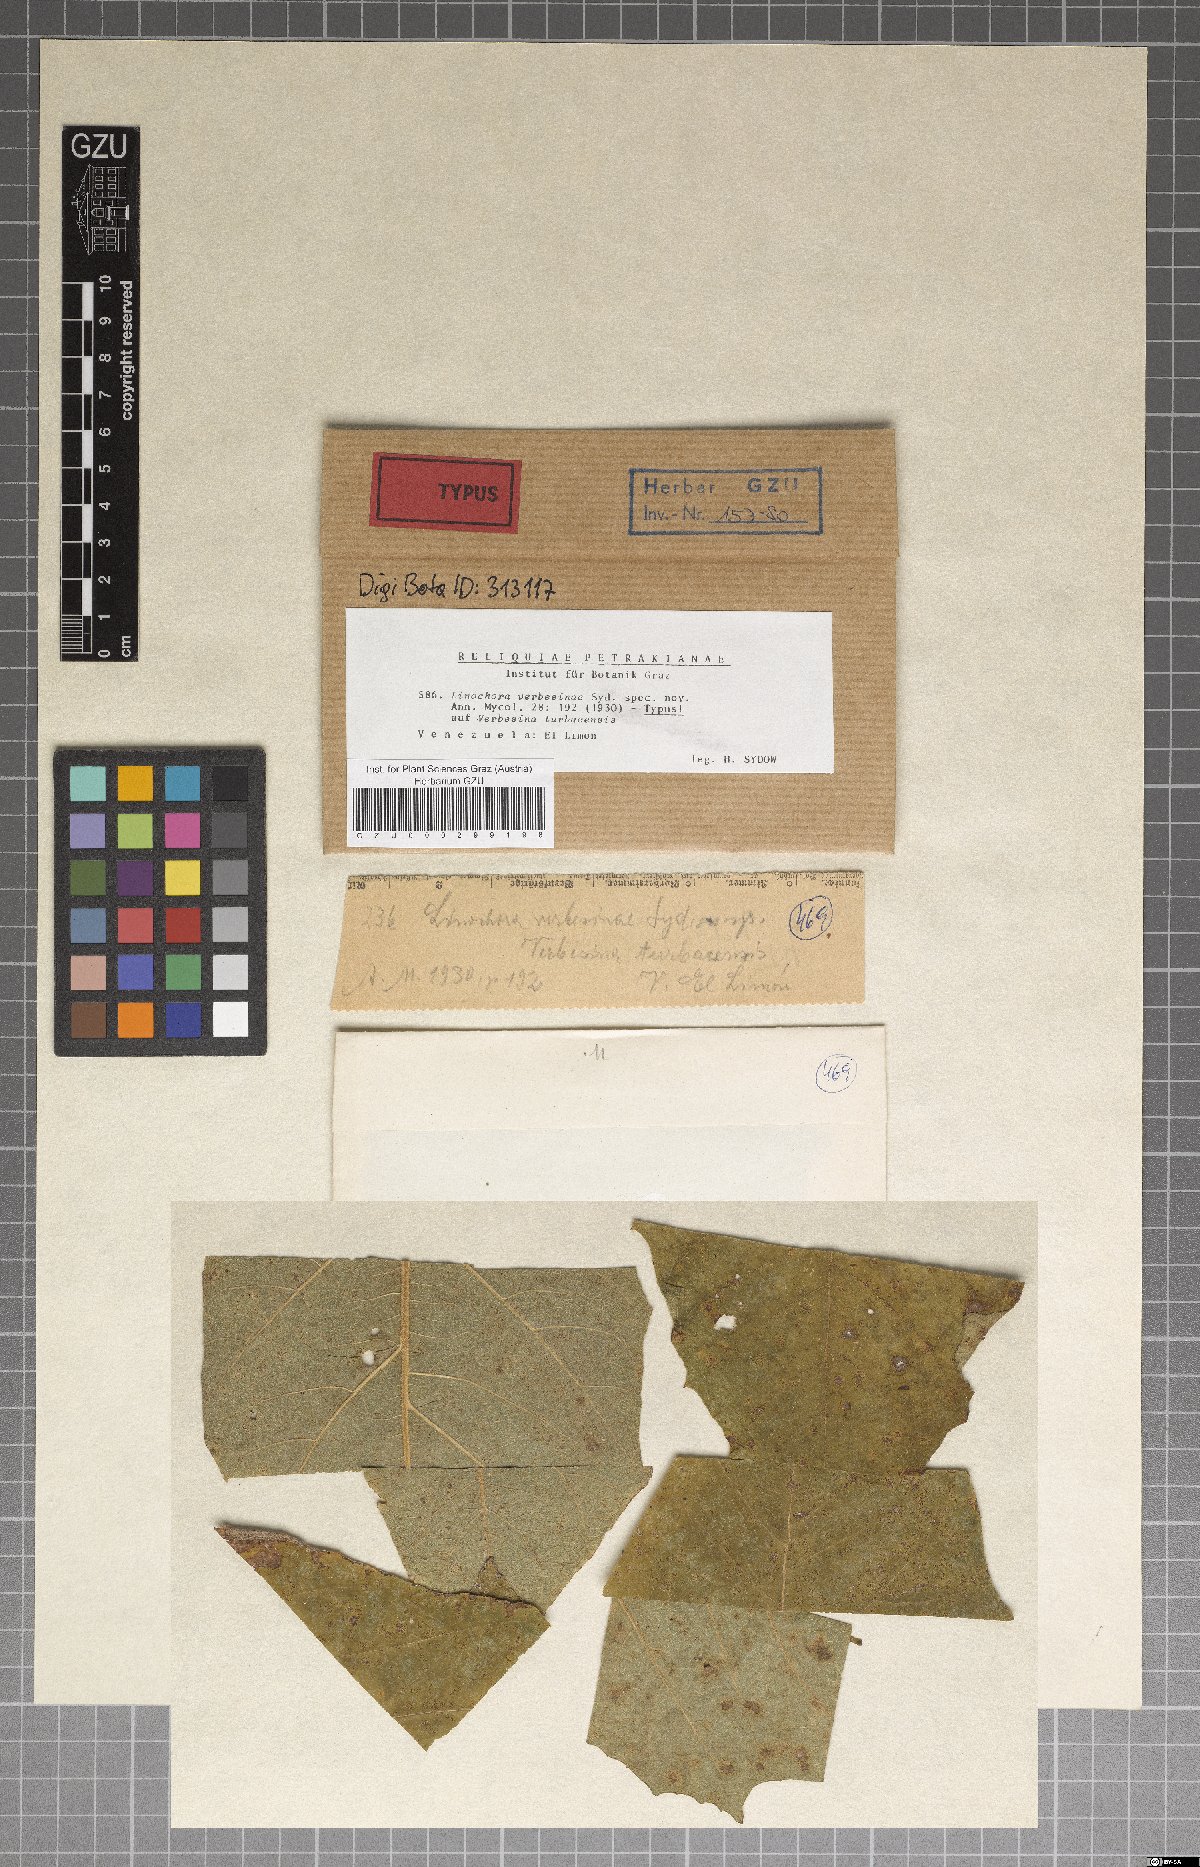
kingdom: Fungi
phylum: Ascomycota
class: Sordariomycetes
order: Phyllachorales
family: Phyllachoraceae
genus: Linochora
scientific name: Linochora verbesinae
